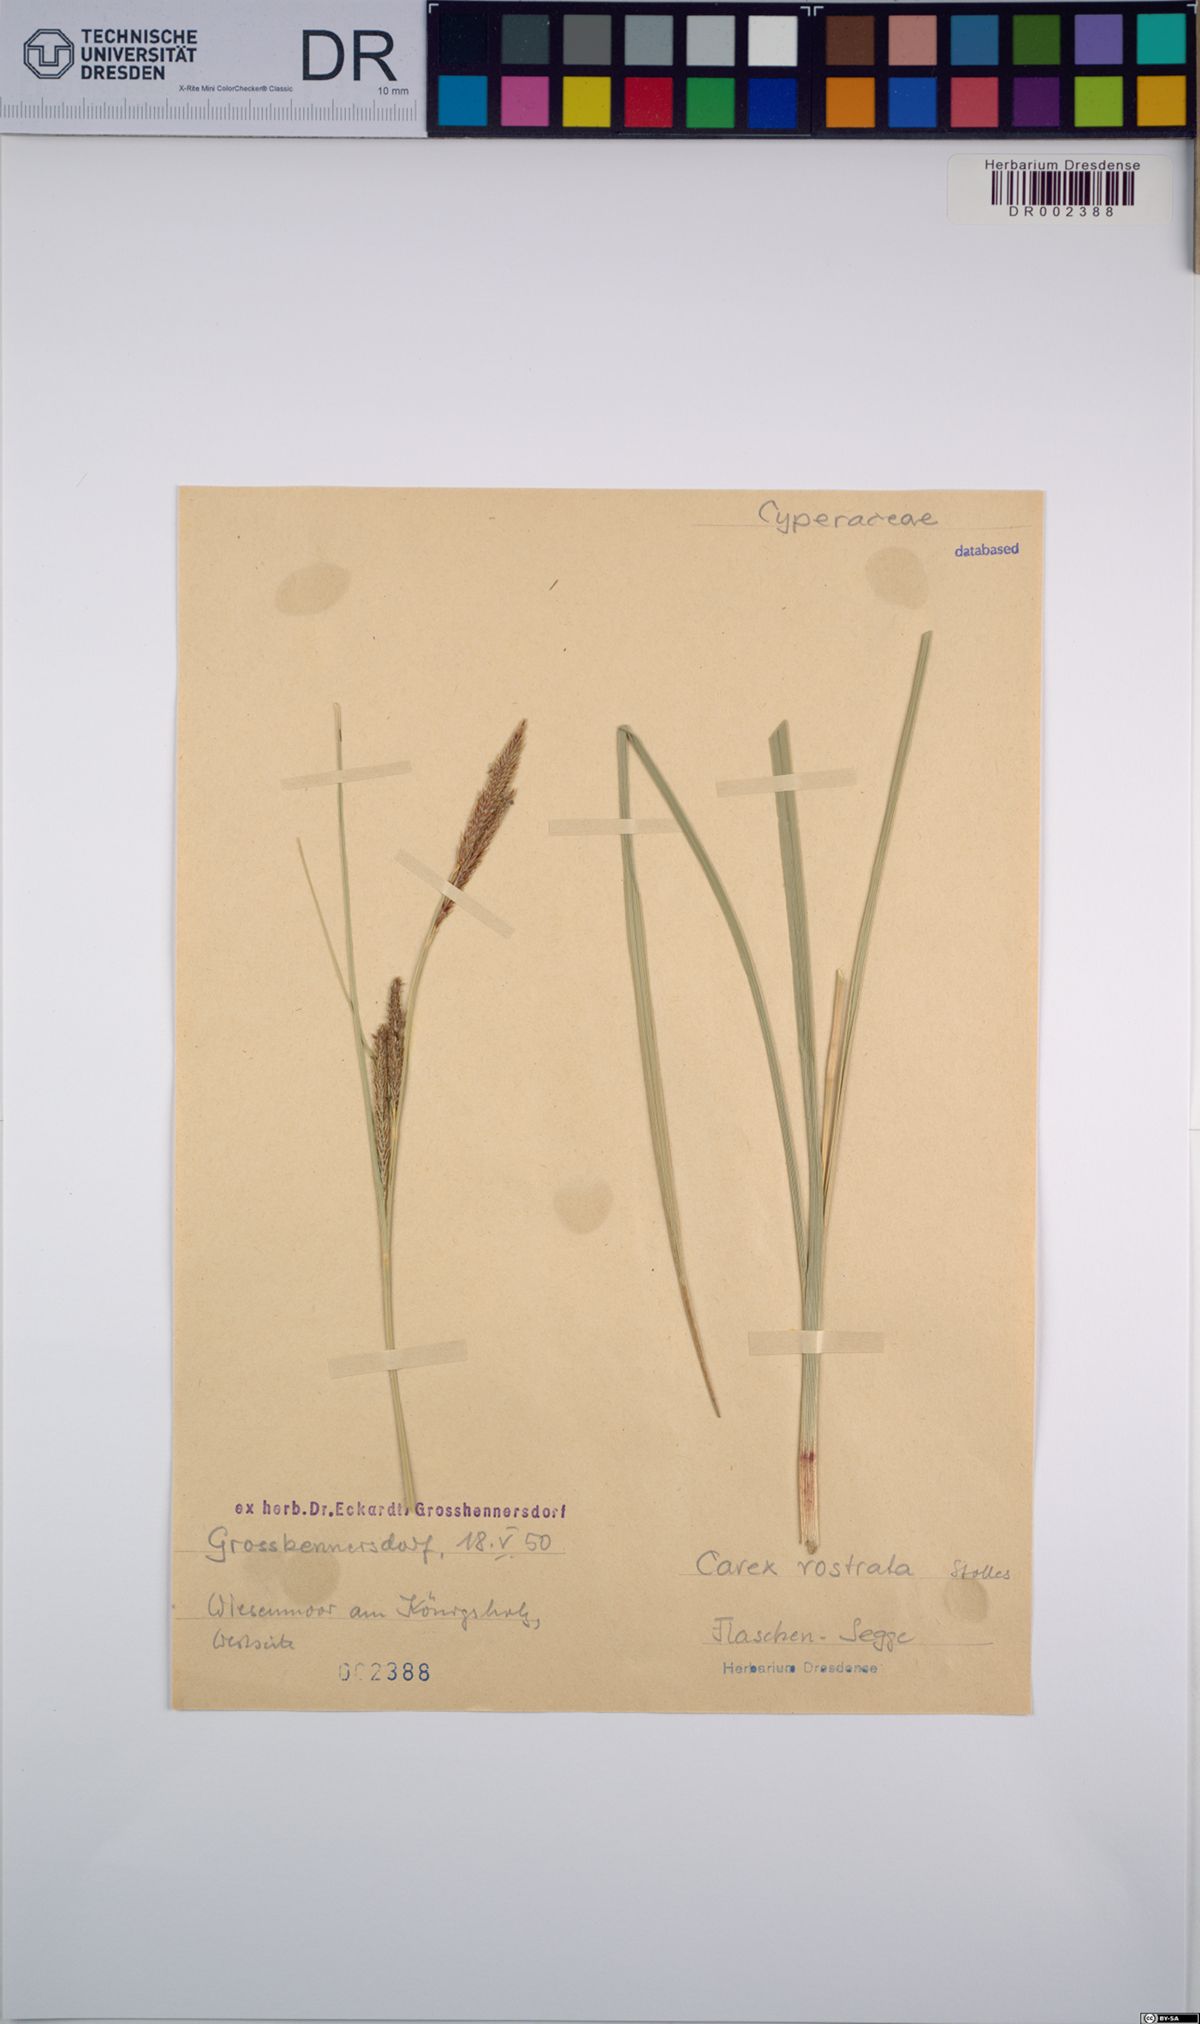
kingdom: Plantae
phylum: Tracheophyta
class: Liliopsida
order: Poales
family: Cyperaceae
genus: Carex
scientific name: Carex rostrata
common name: Bottle sedge
